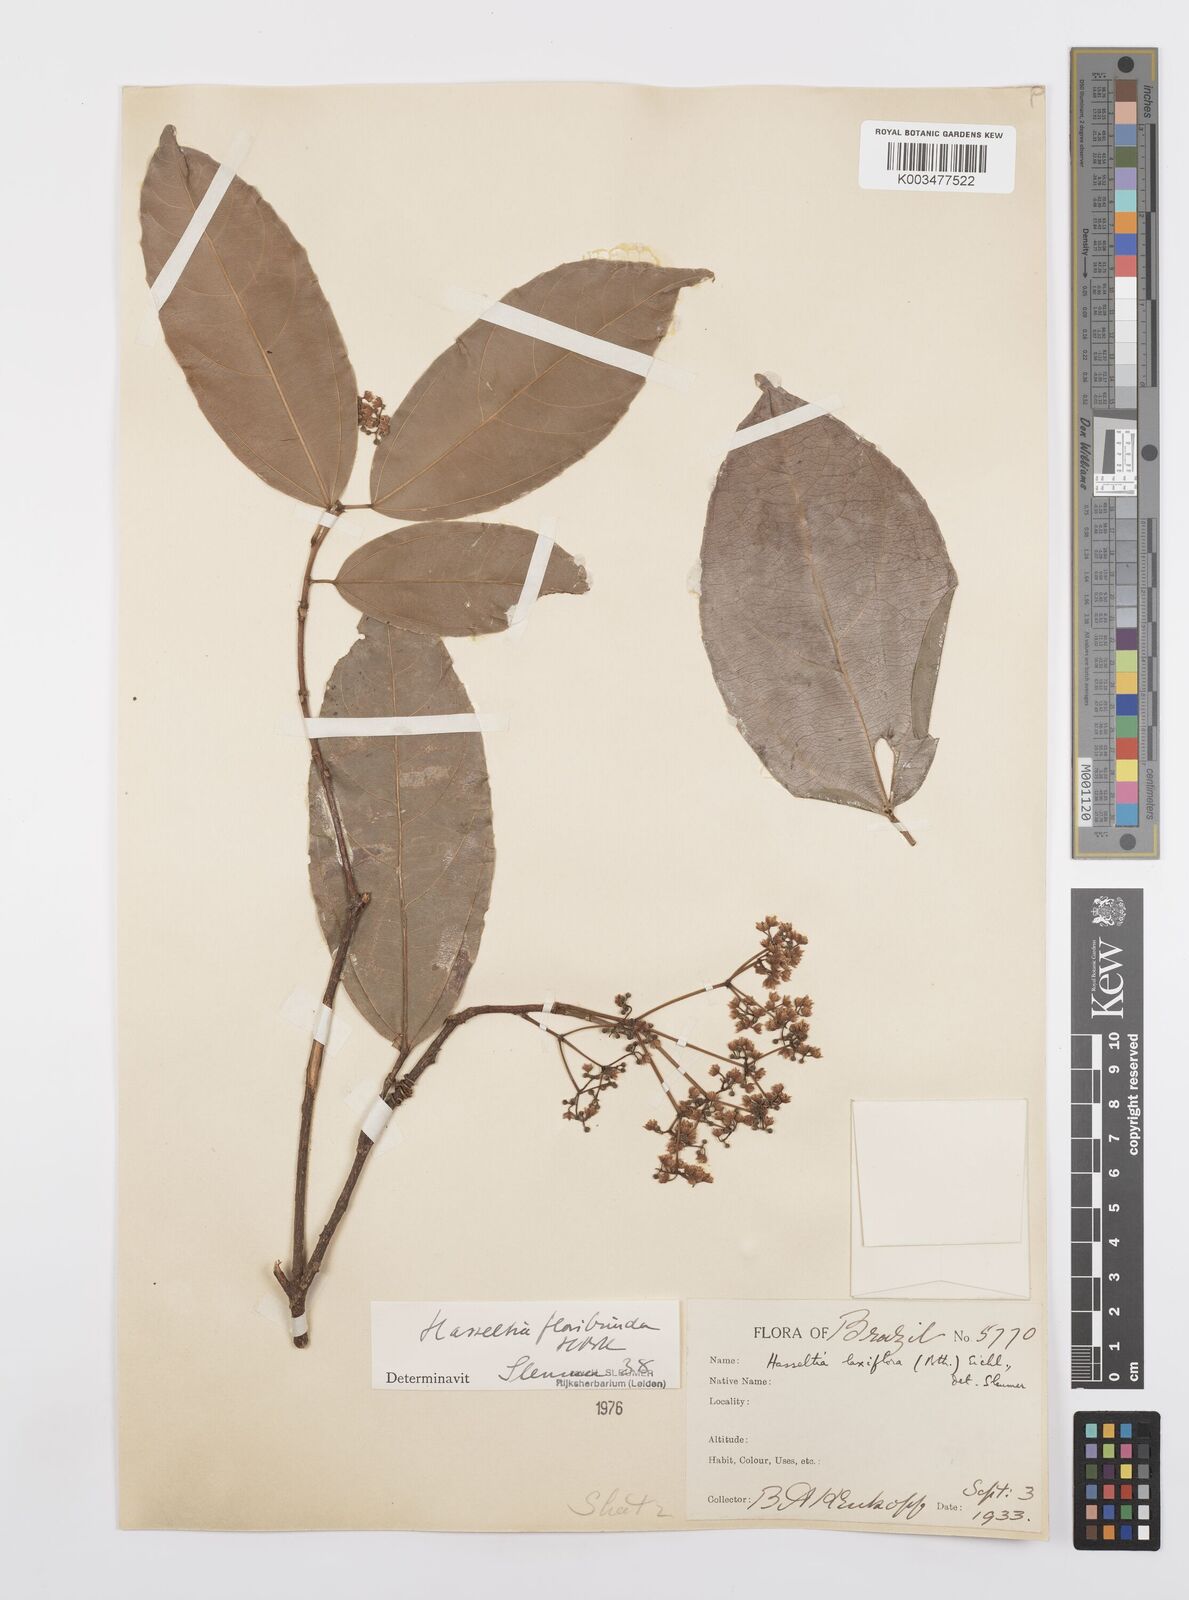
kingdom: Plantae
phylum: Tracheophyta
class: Magnoliopsida
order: Malpighiales
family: Salicaceae
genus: Hasseltia
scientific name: Hasseltia floribunda
